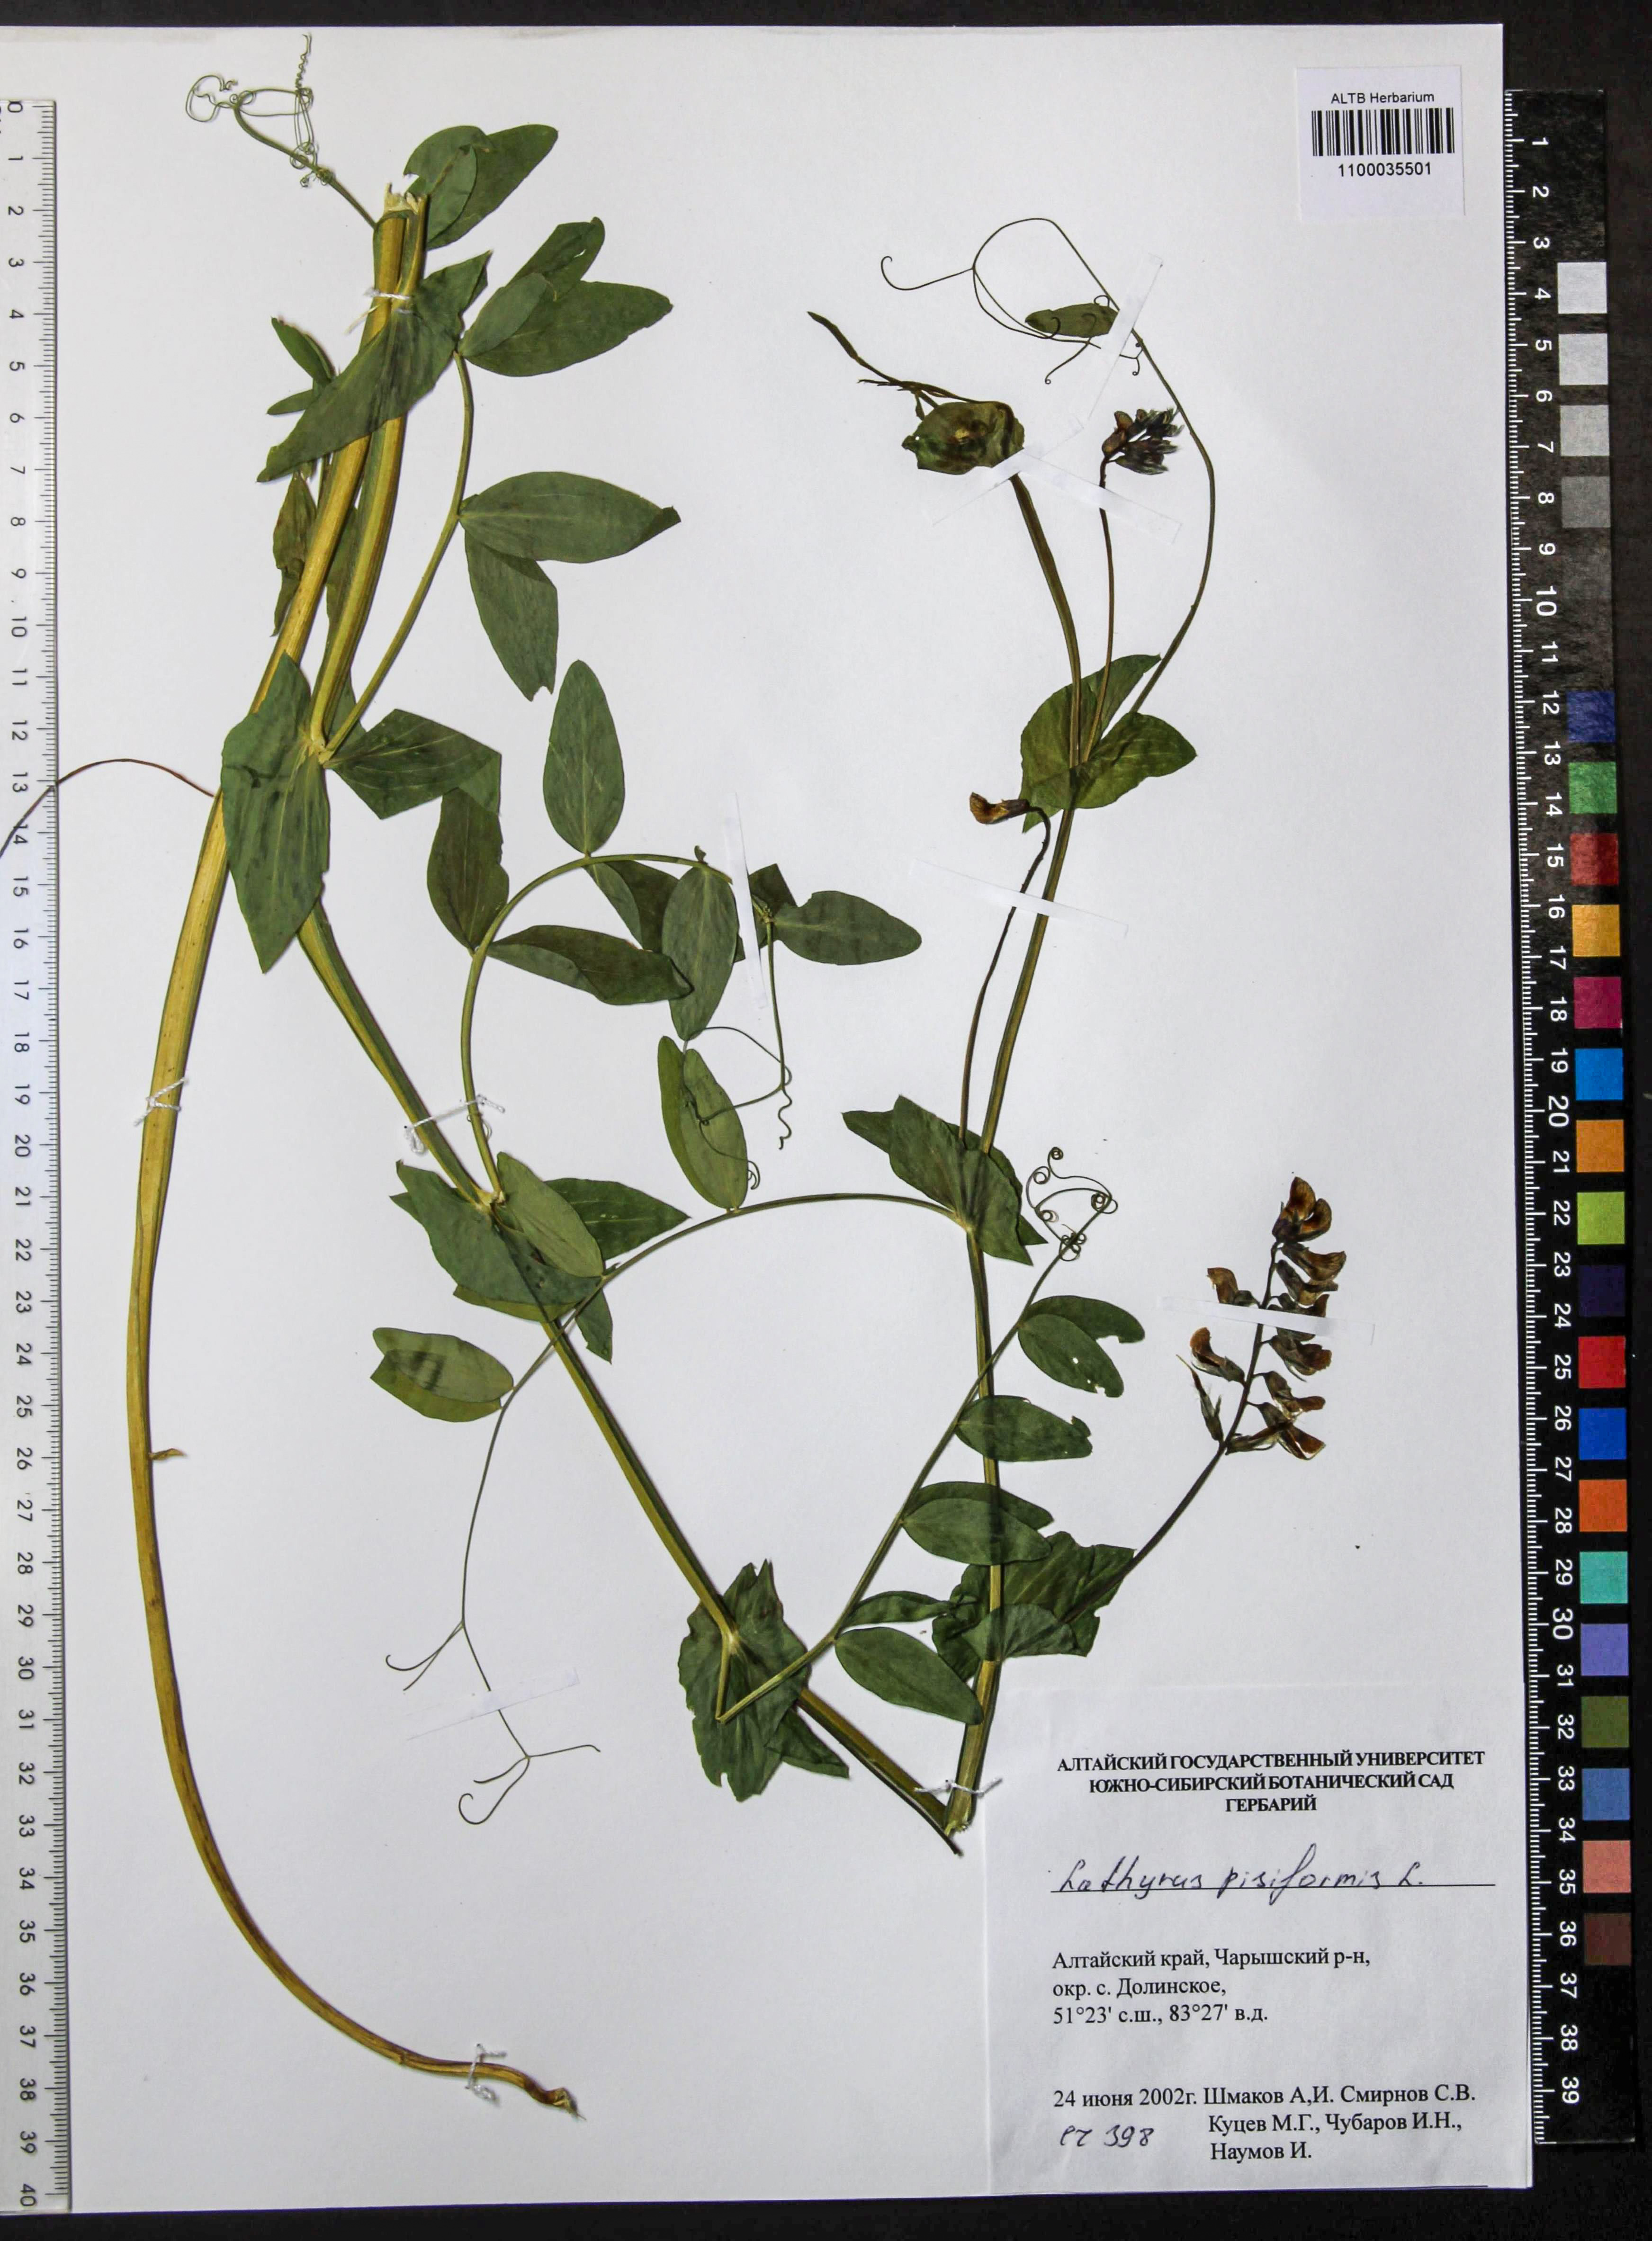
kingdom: Plantae
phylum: Tracheophyta
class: Magnoliopsida
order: Fabales
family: Fabaceae
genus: Lathyrus
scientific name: Lathyrus pisiformis
